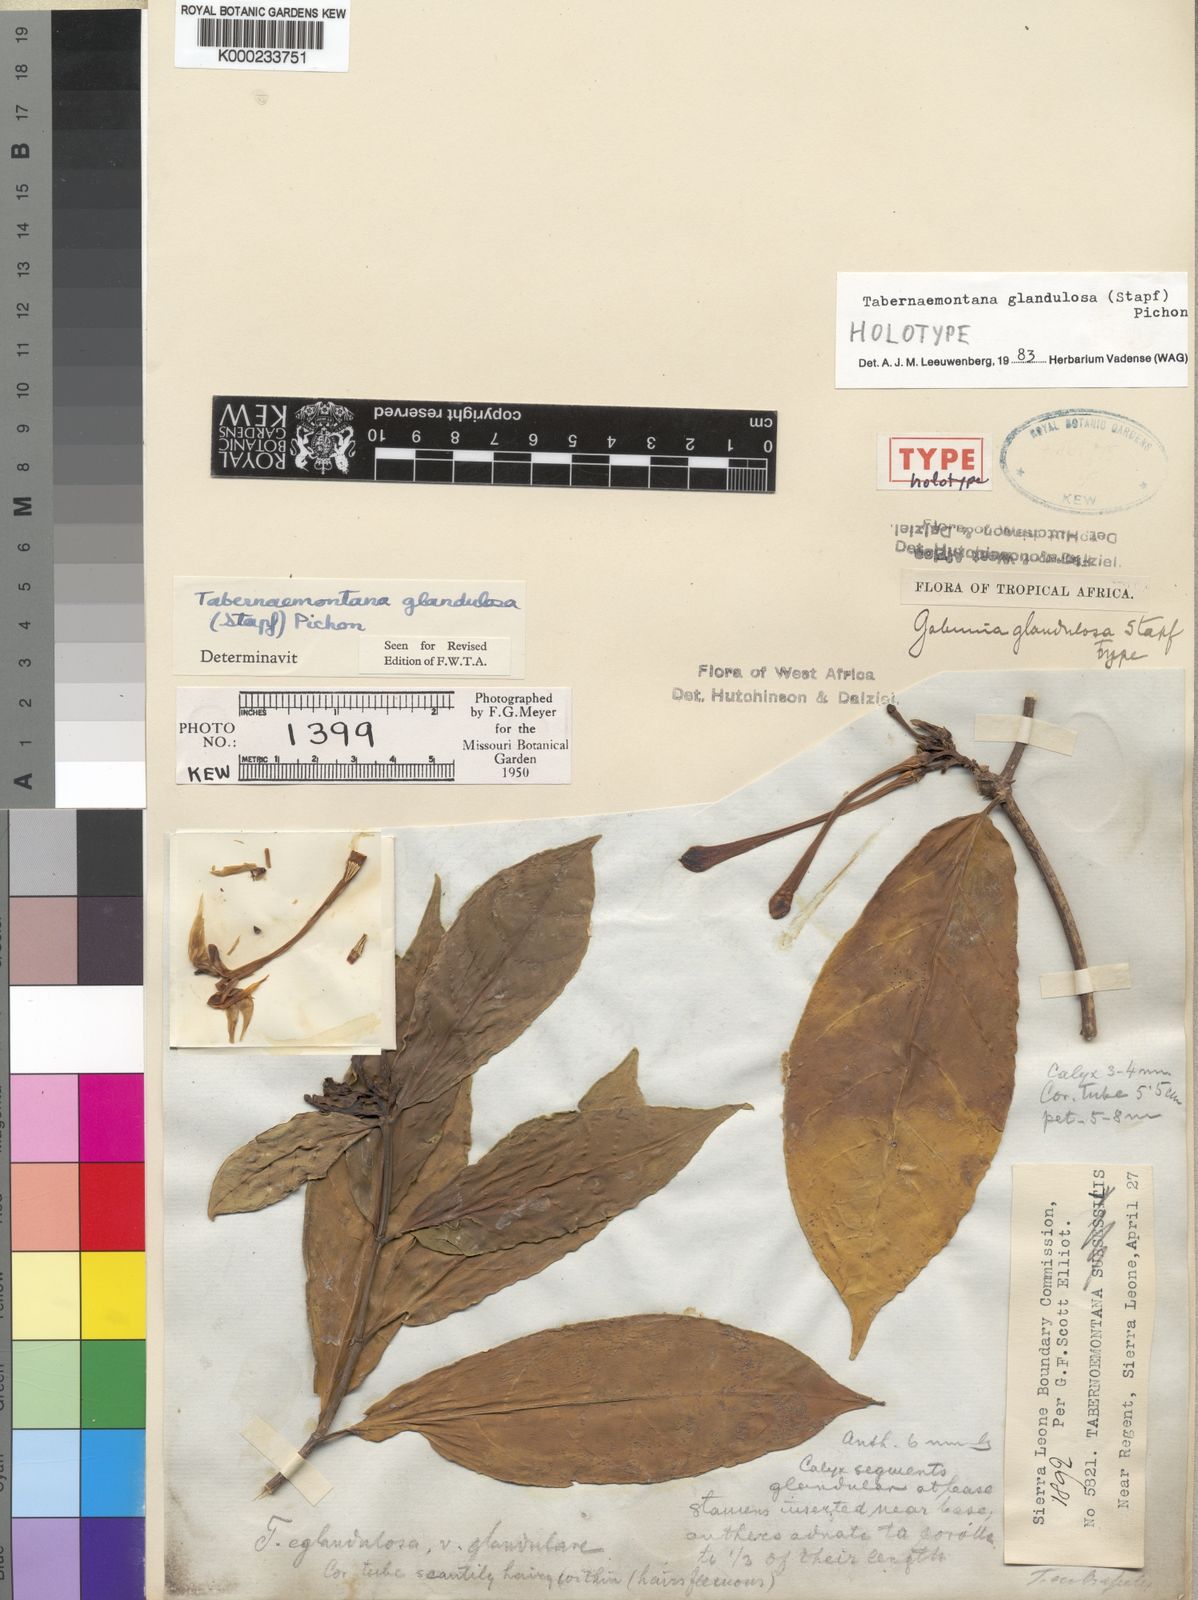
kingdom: Plantae
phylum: Tracheophyta
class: Magnoliopsida
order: Gentianales
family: Apocynaceae
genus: Tabernaemontana
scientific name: Tabernaemontana glandulosa
